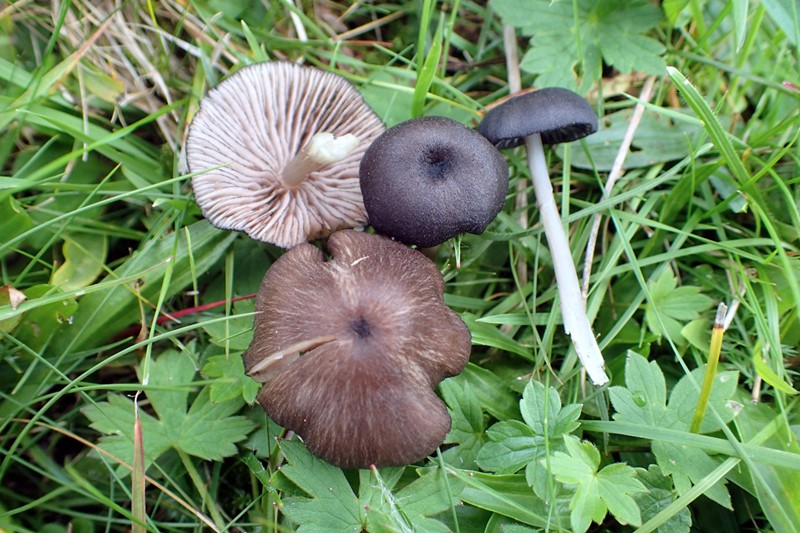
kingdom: Fungi
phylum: Basidiomycota
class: Agaricomycetes
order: Agaricales
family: Entolomataceae
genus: Entoloma
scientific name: Entoloma
